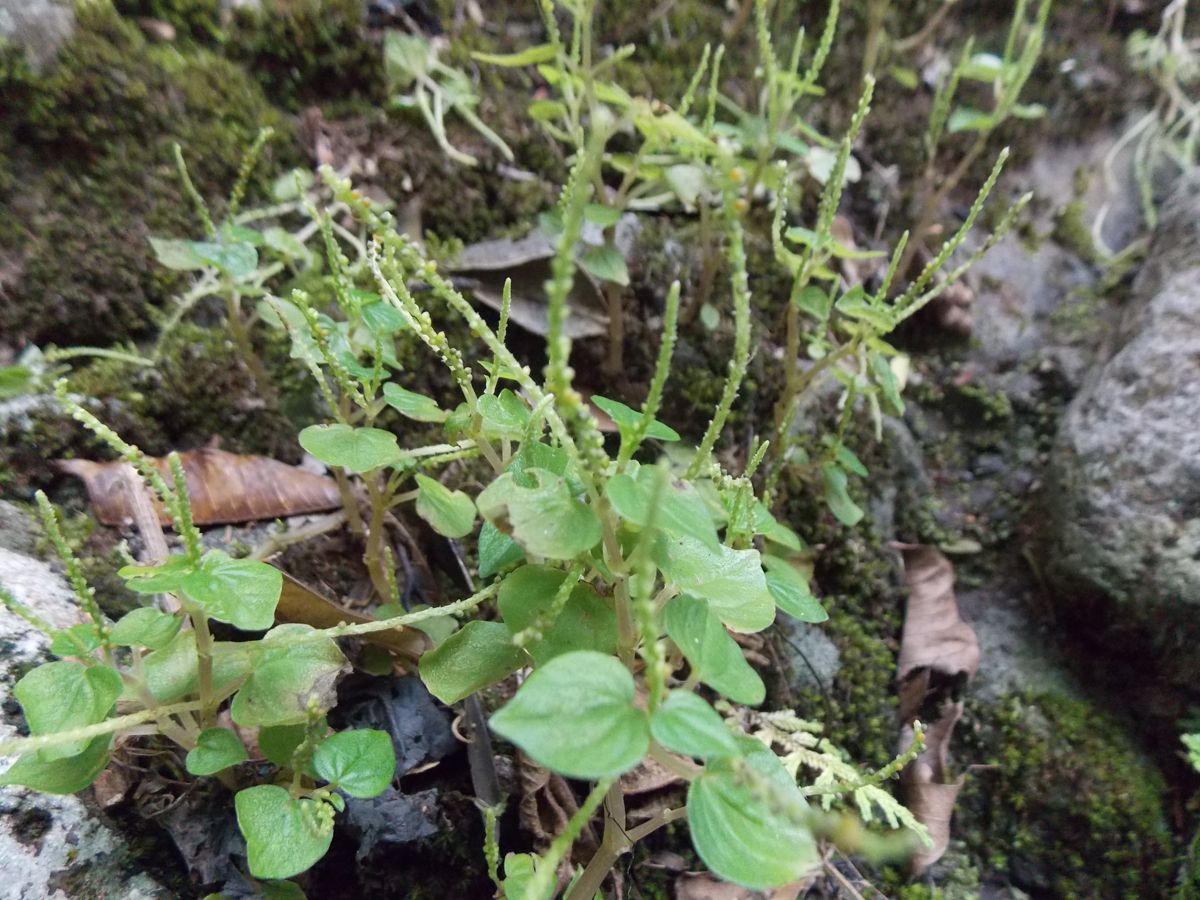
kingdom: Plantae
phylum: Tracheophyta
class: Magnoliopsida
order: Piperales
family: Piperaceae
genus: Peperomia
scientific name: Peperomia pellucida
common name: Man to man
